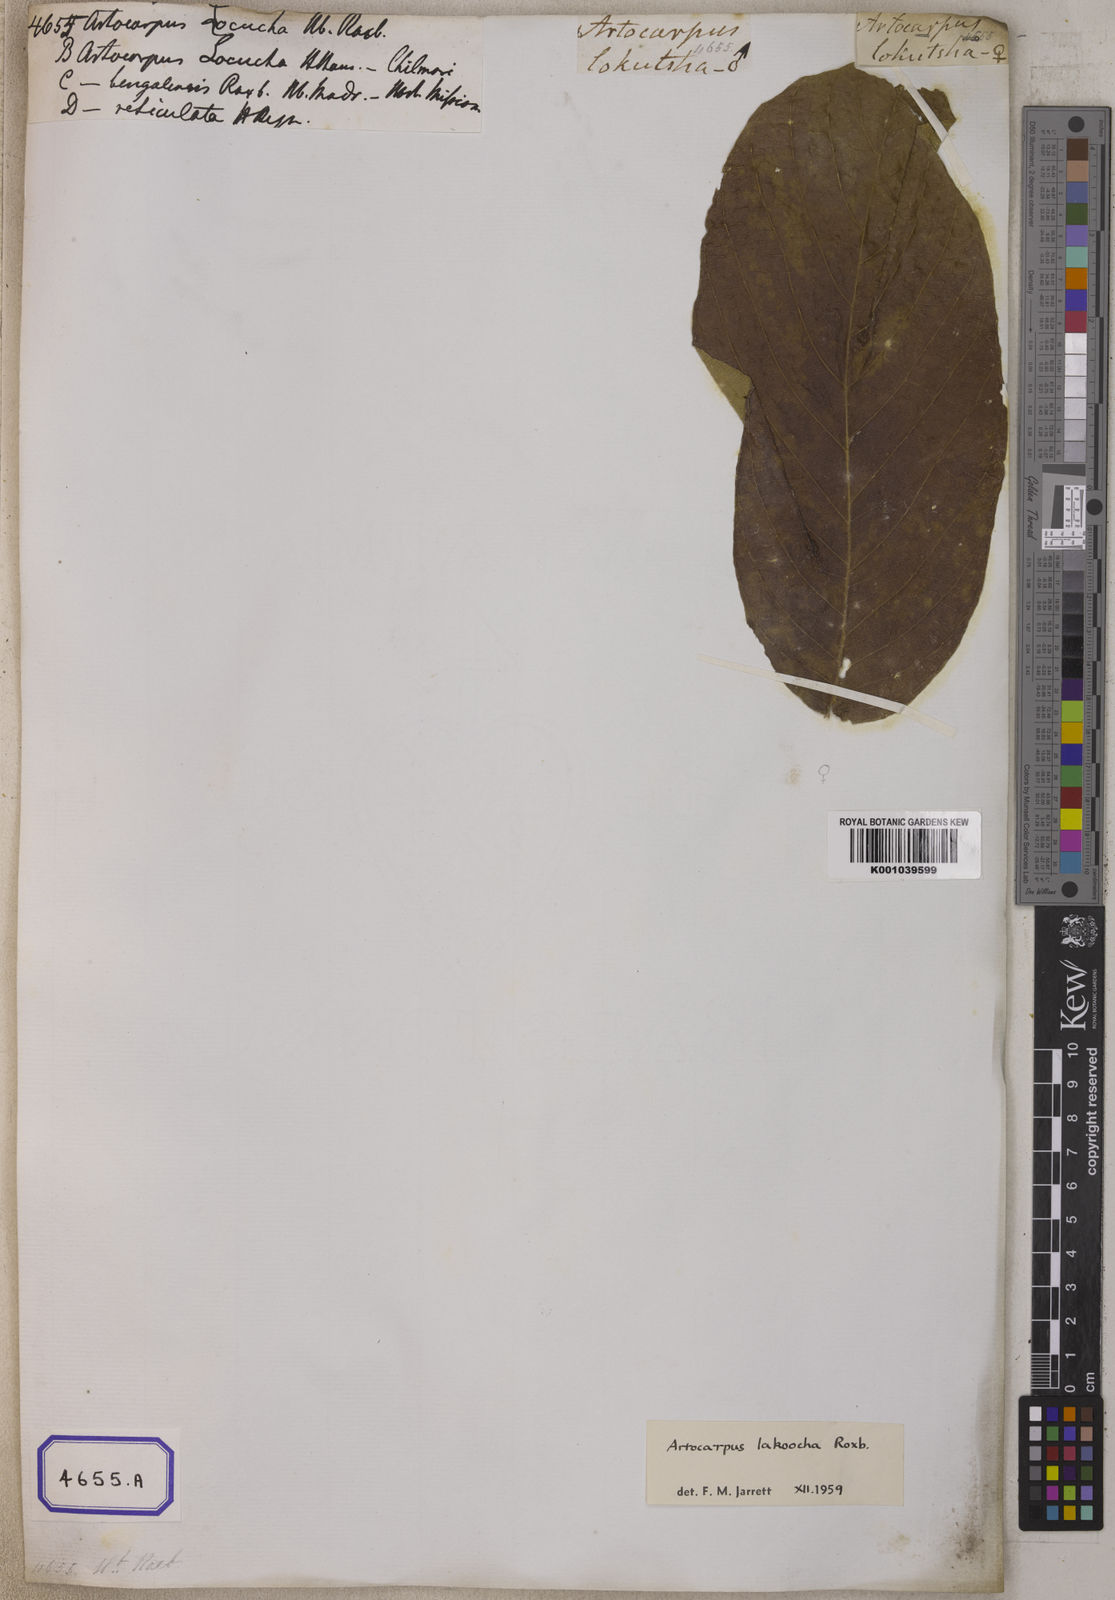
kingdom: Plantae
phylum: Tracheophyta
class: Magnoliopsida
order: Rosales
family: Moraceae
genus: Artocarpus
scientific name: Artocarpus lacucha
